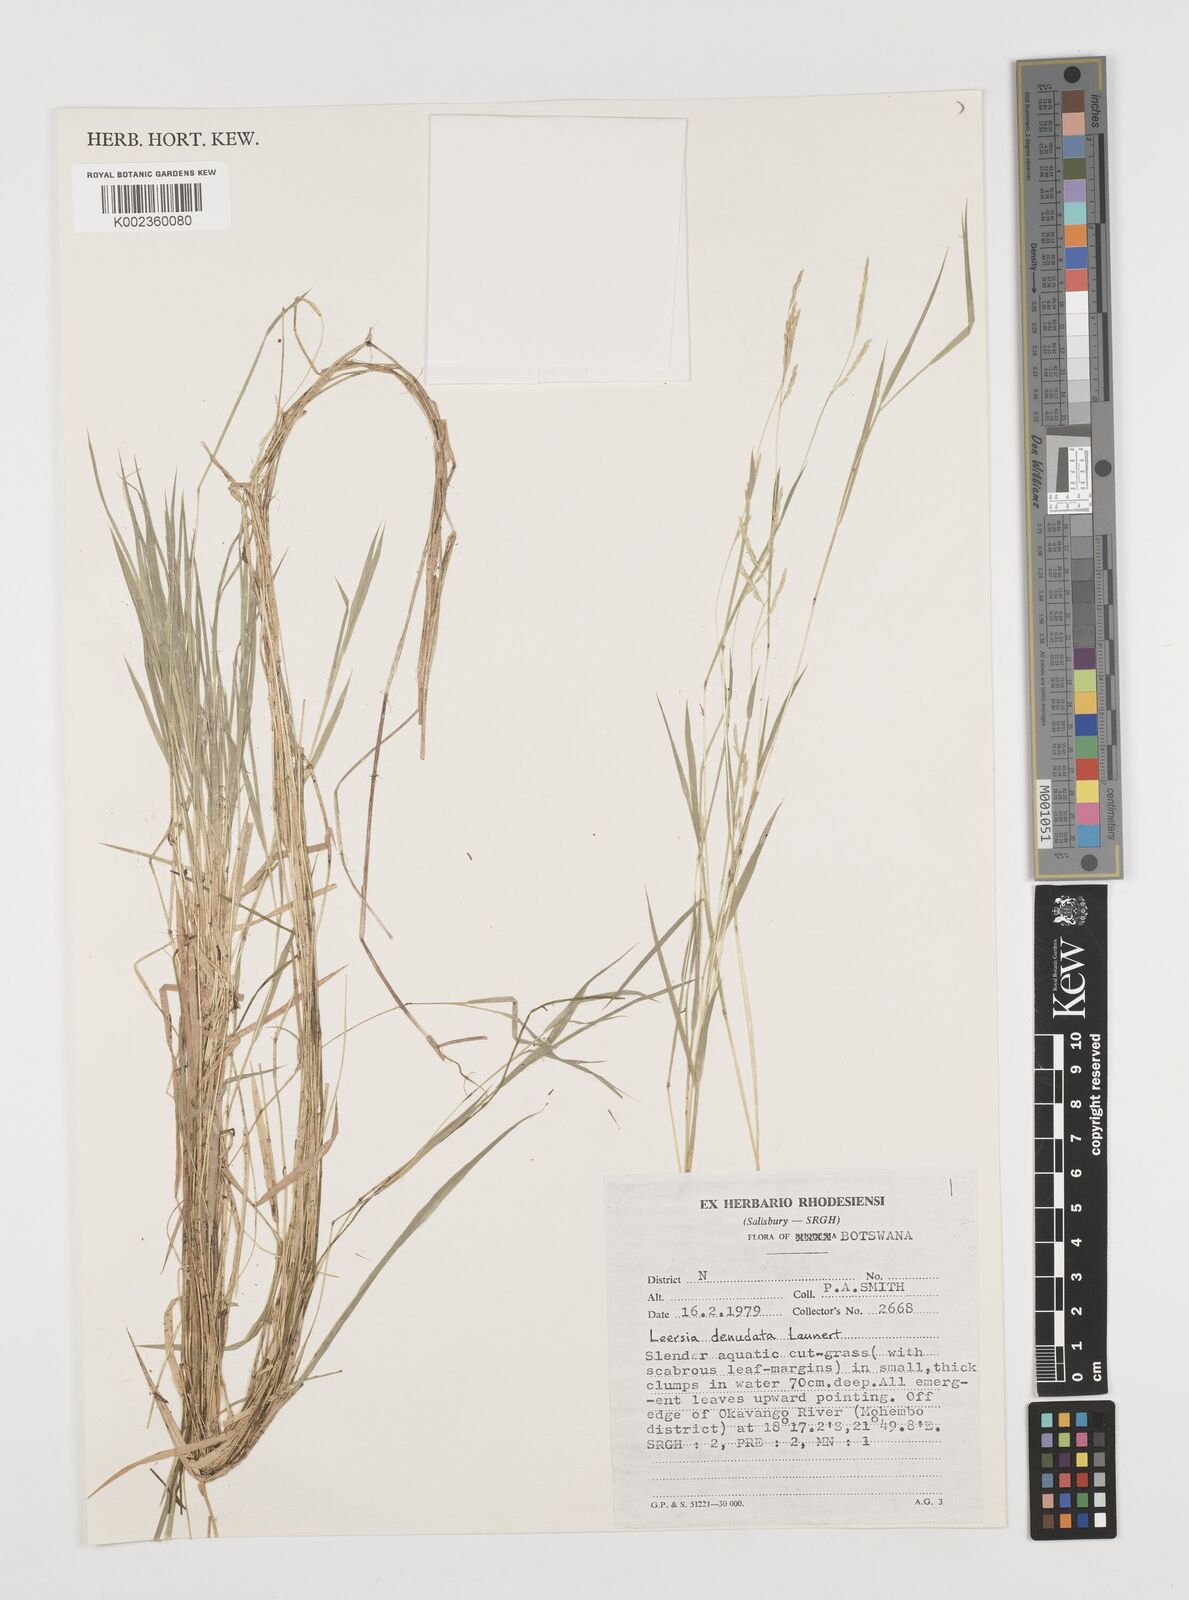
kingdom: Plantae
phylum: Tracheophyta
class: Liliopsida
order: Poales
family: Poaceae
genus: Leersia
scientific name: Leersia denudata
